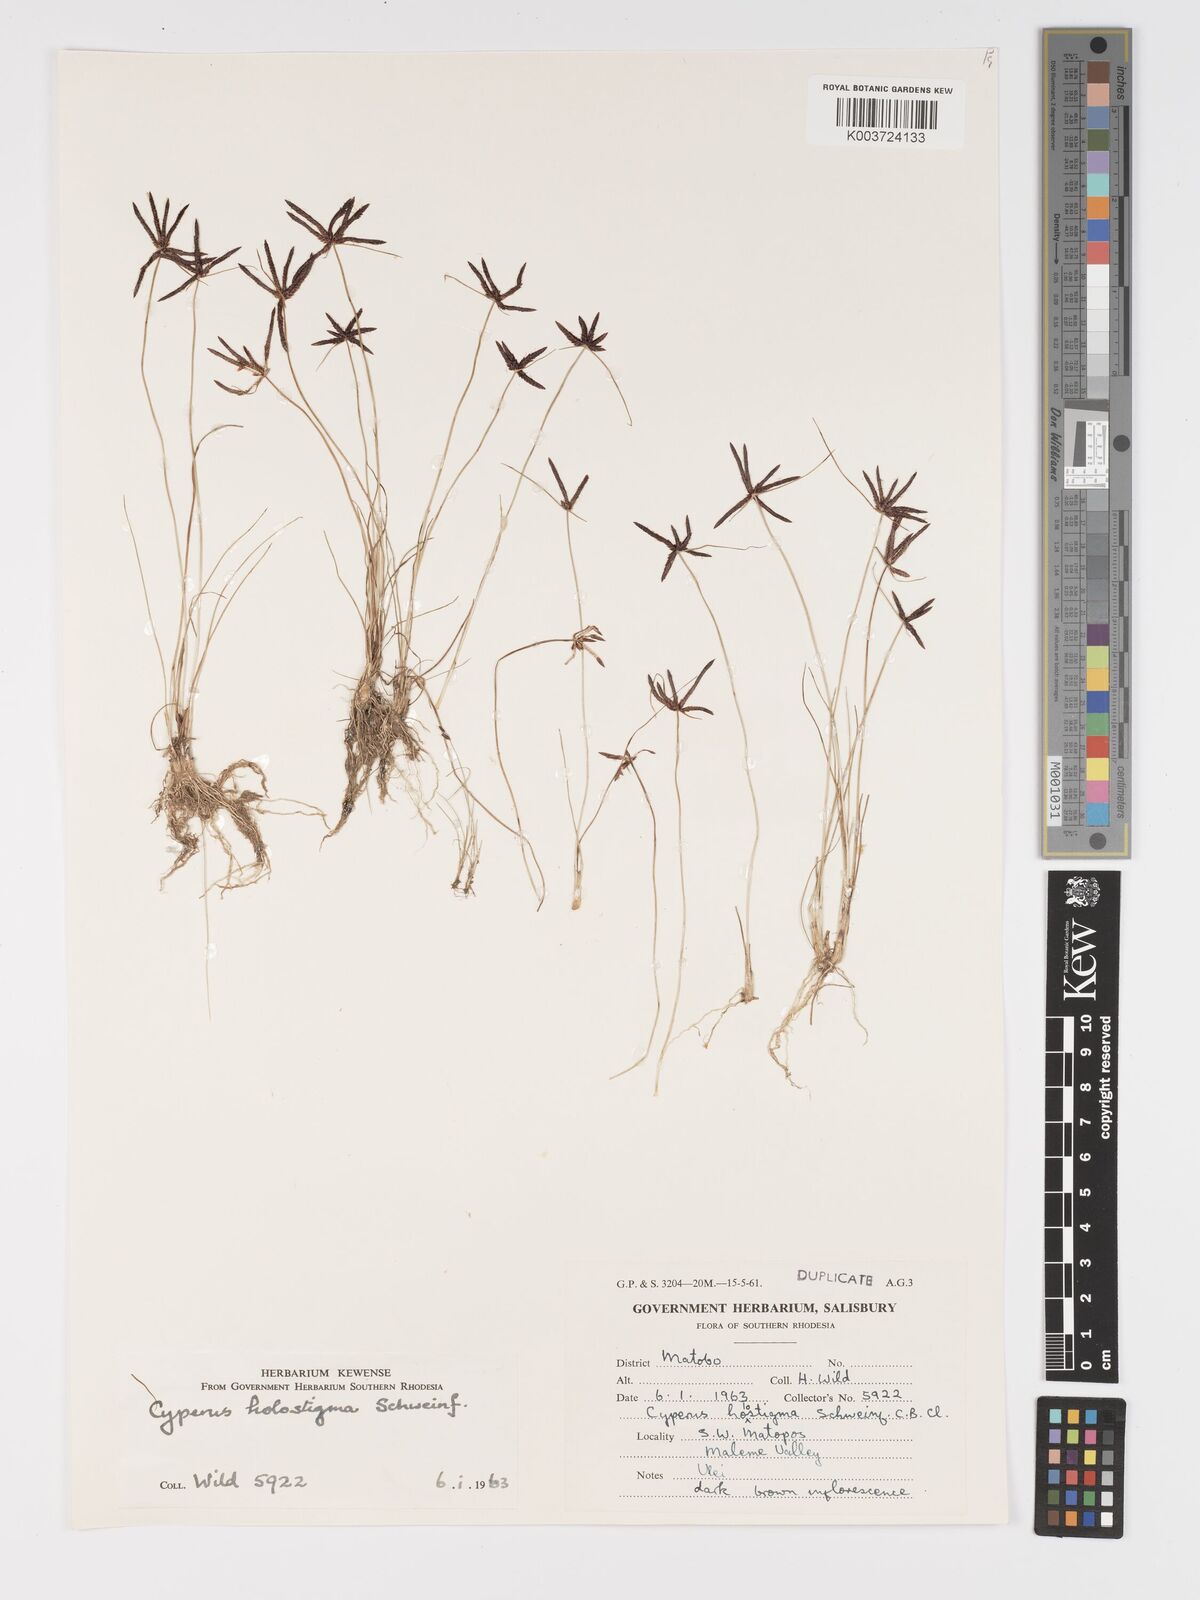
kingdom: Plantae
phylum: Tracheophyta
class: Liliopsida
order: Poales
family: Cyperaceae
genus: Cyperus
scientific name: Cyperus holostigma
